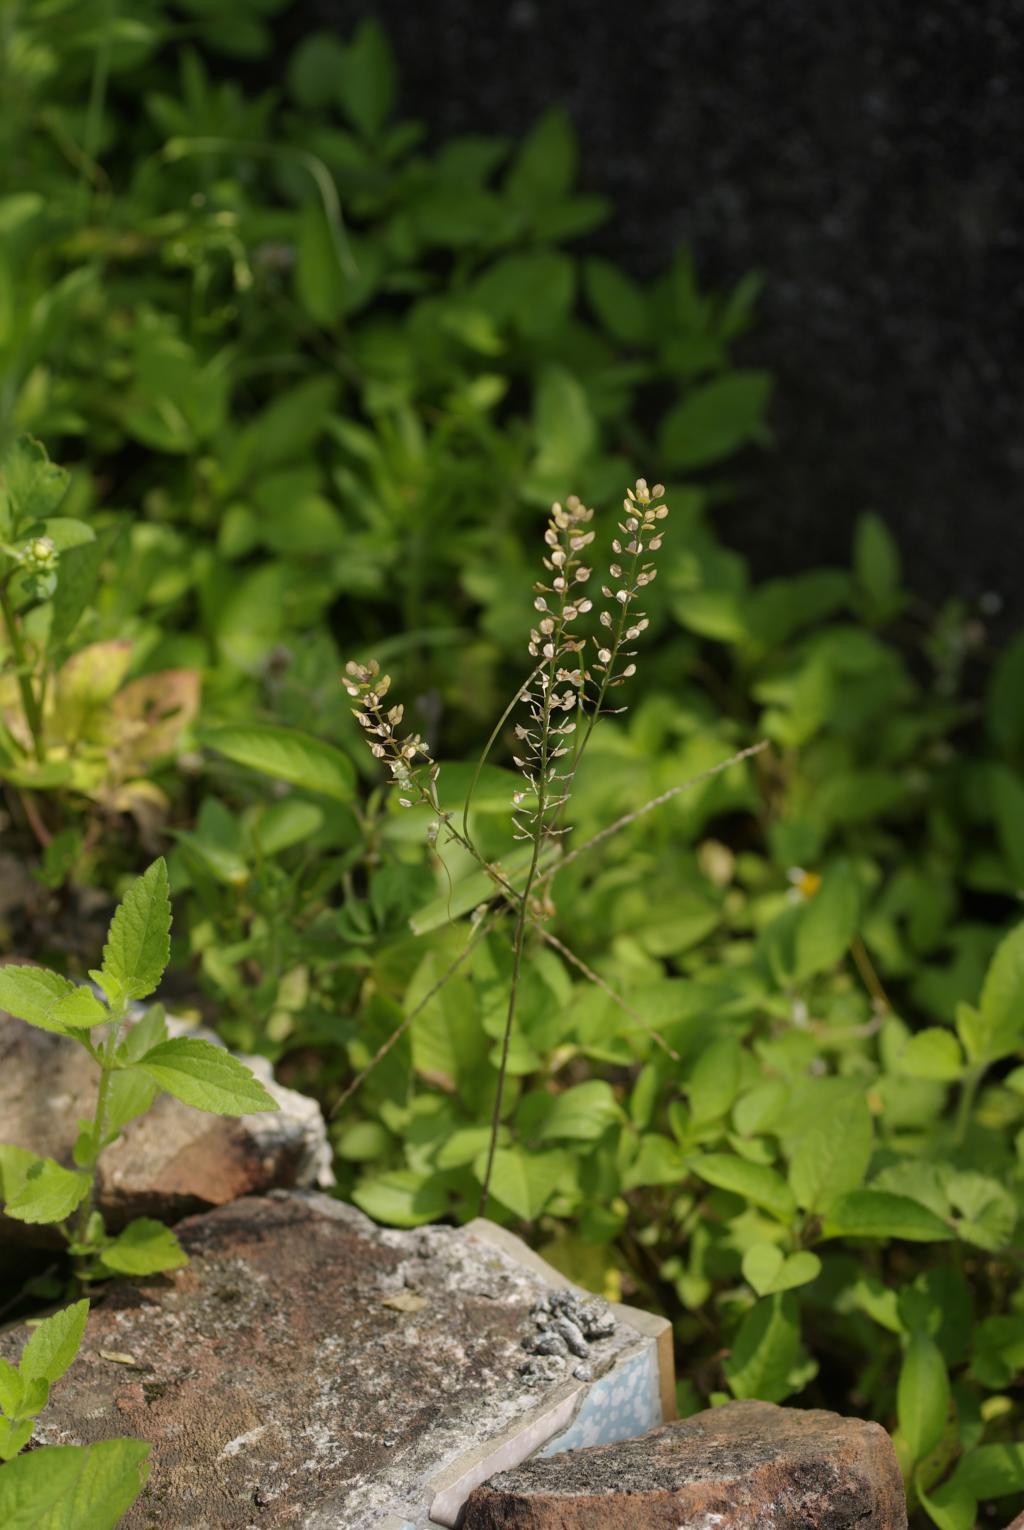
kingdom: Plantae
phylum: Tracheophyta
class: Magnoliopsida
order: Brassicales
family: Brassicaceae
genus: Lepidium
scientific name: Lepidium virginicum
